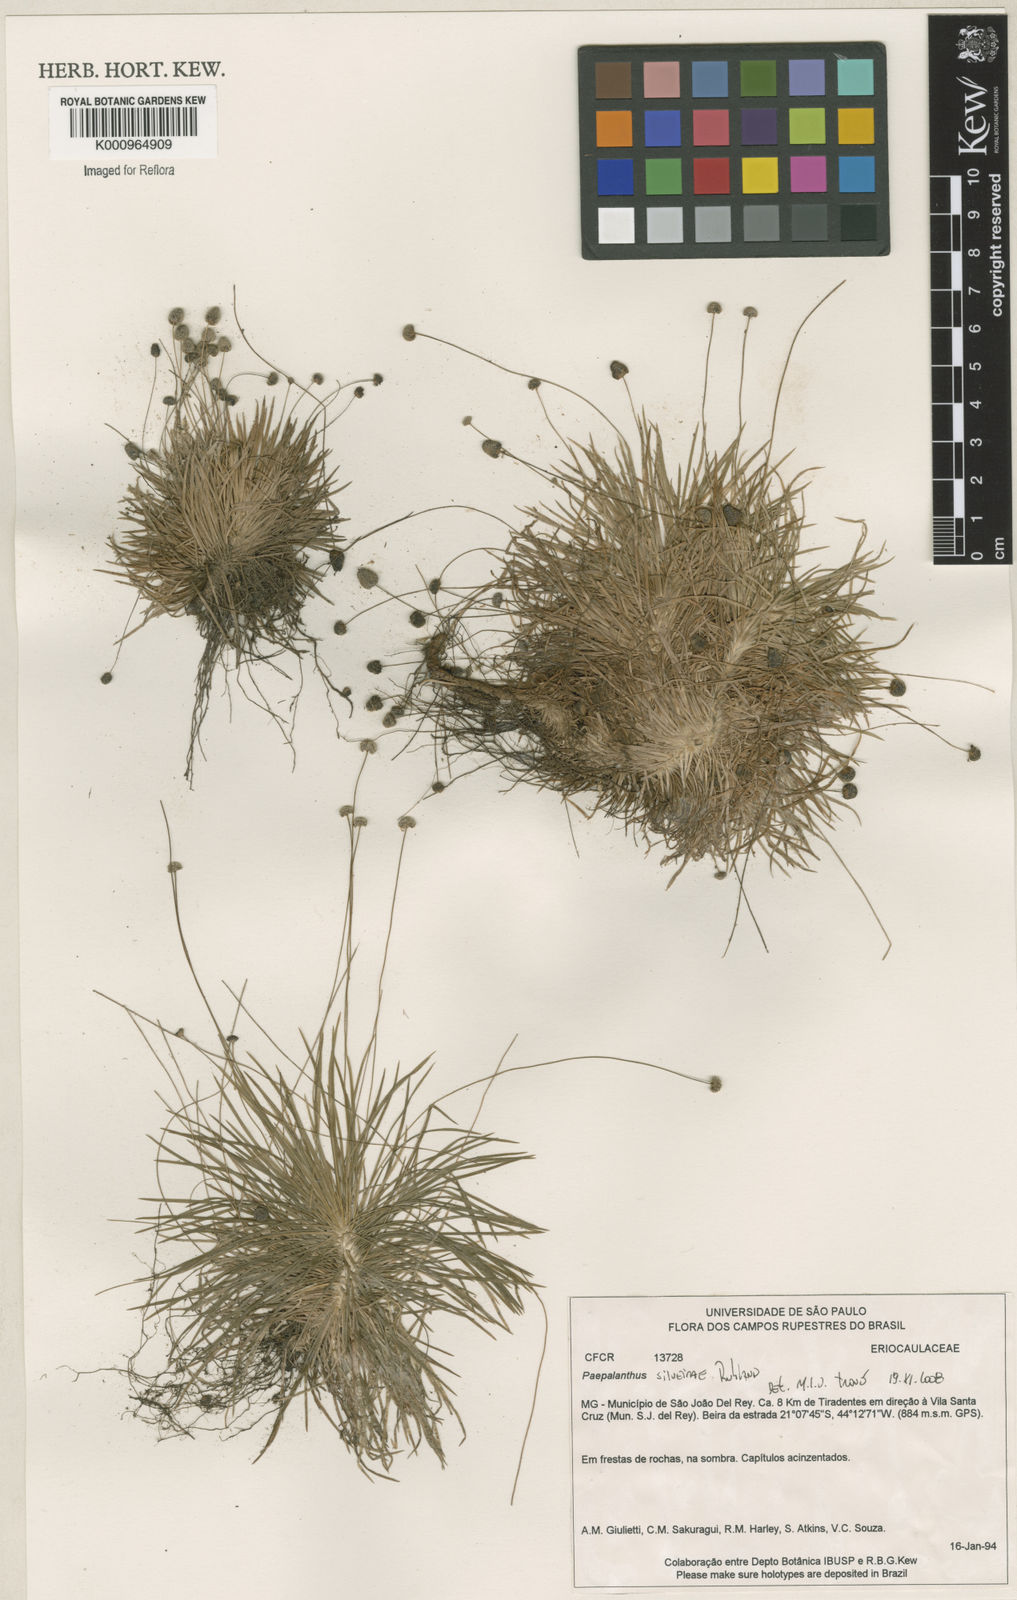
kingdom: Plantae
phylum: Tracheophyta
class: Liliopsida
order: Poales
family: Eriocaulaceae
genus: Paepalanthus
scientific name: Paepalanthus silveirae
